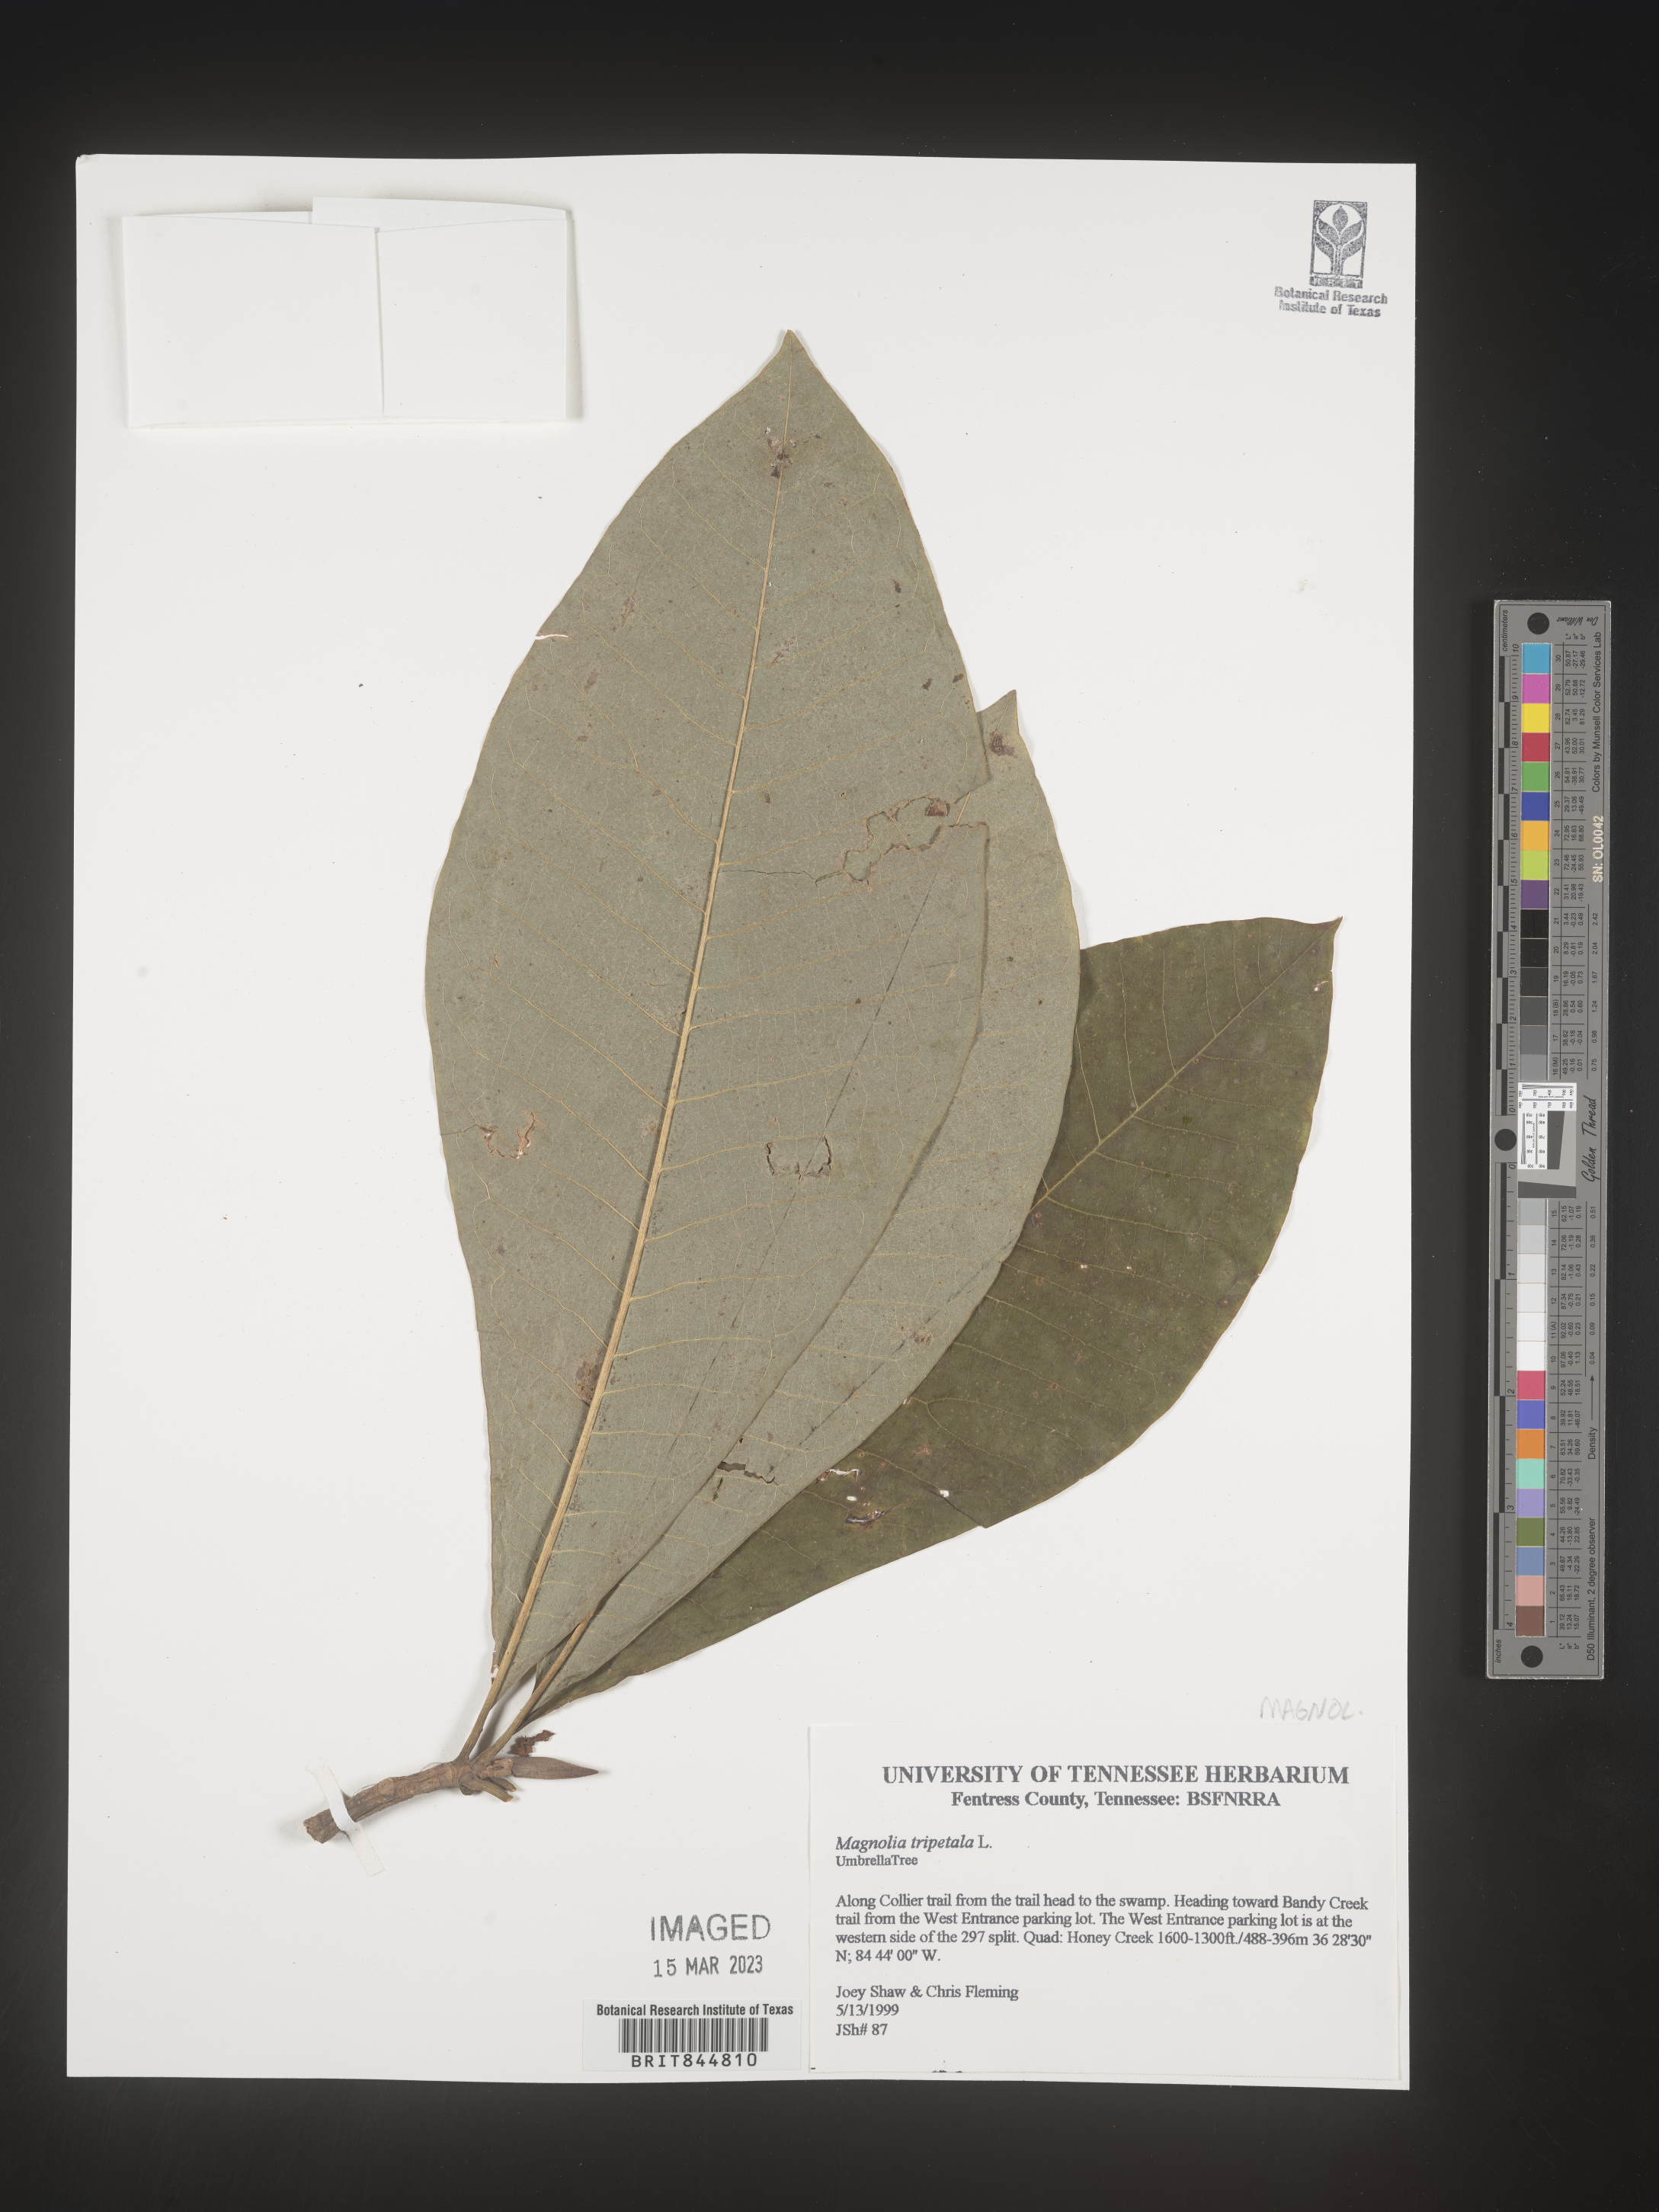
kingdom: Plantae
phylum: Tracheophyta
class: Magnoliopsida
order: Magnoliales
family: Magnoliaceae
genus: Magnolia
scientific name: Magnolia tripetala
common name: Umbrella magnolia
